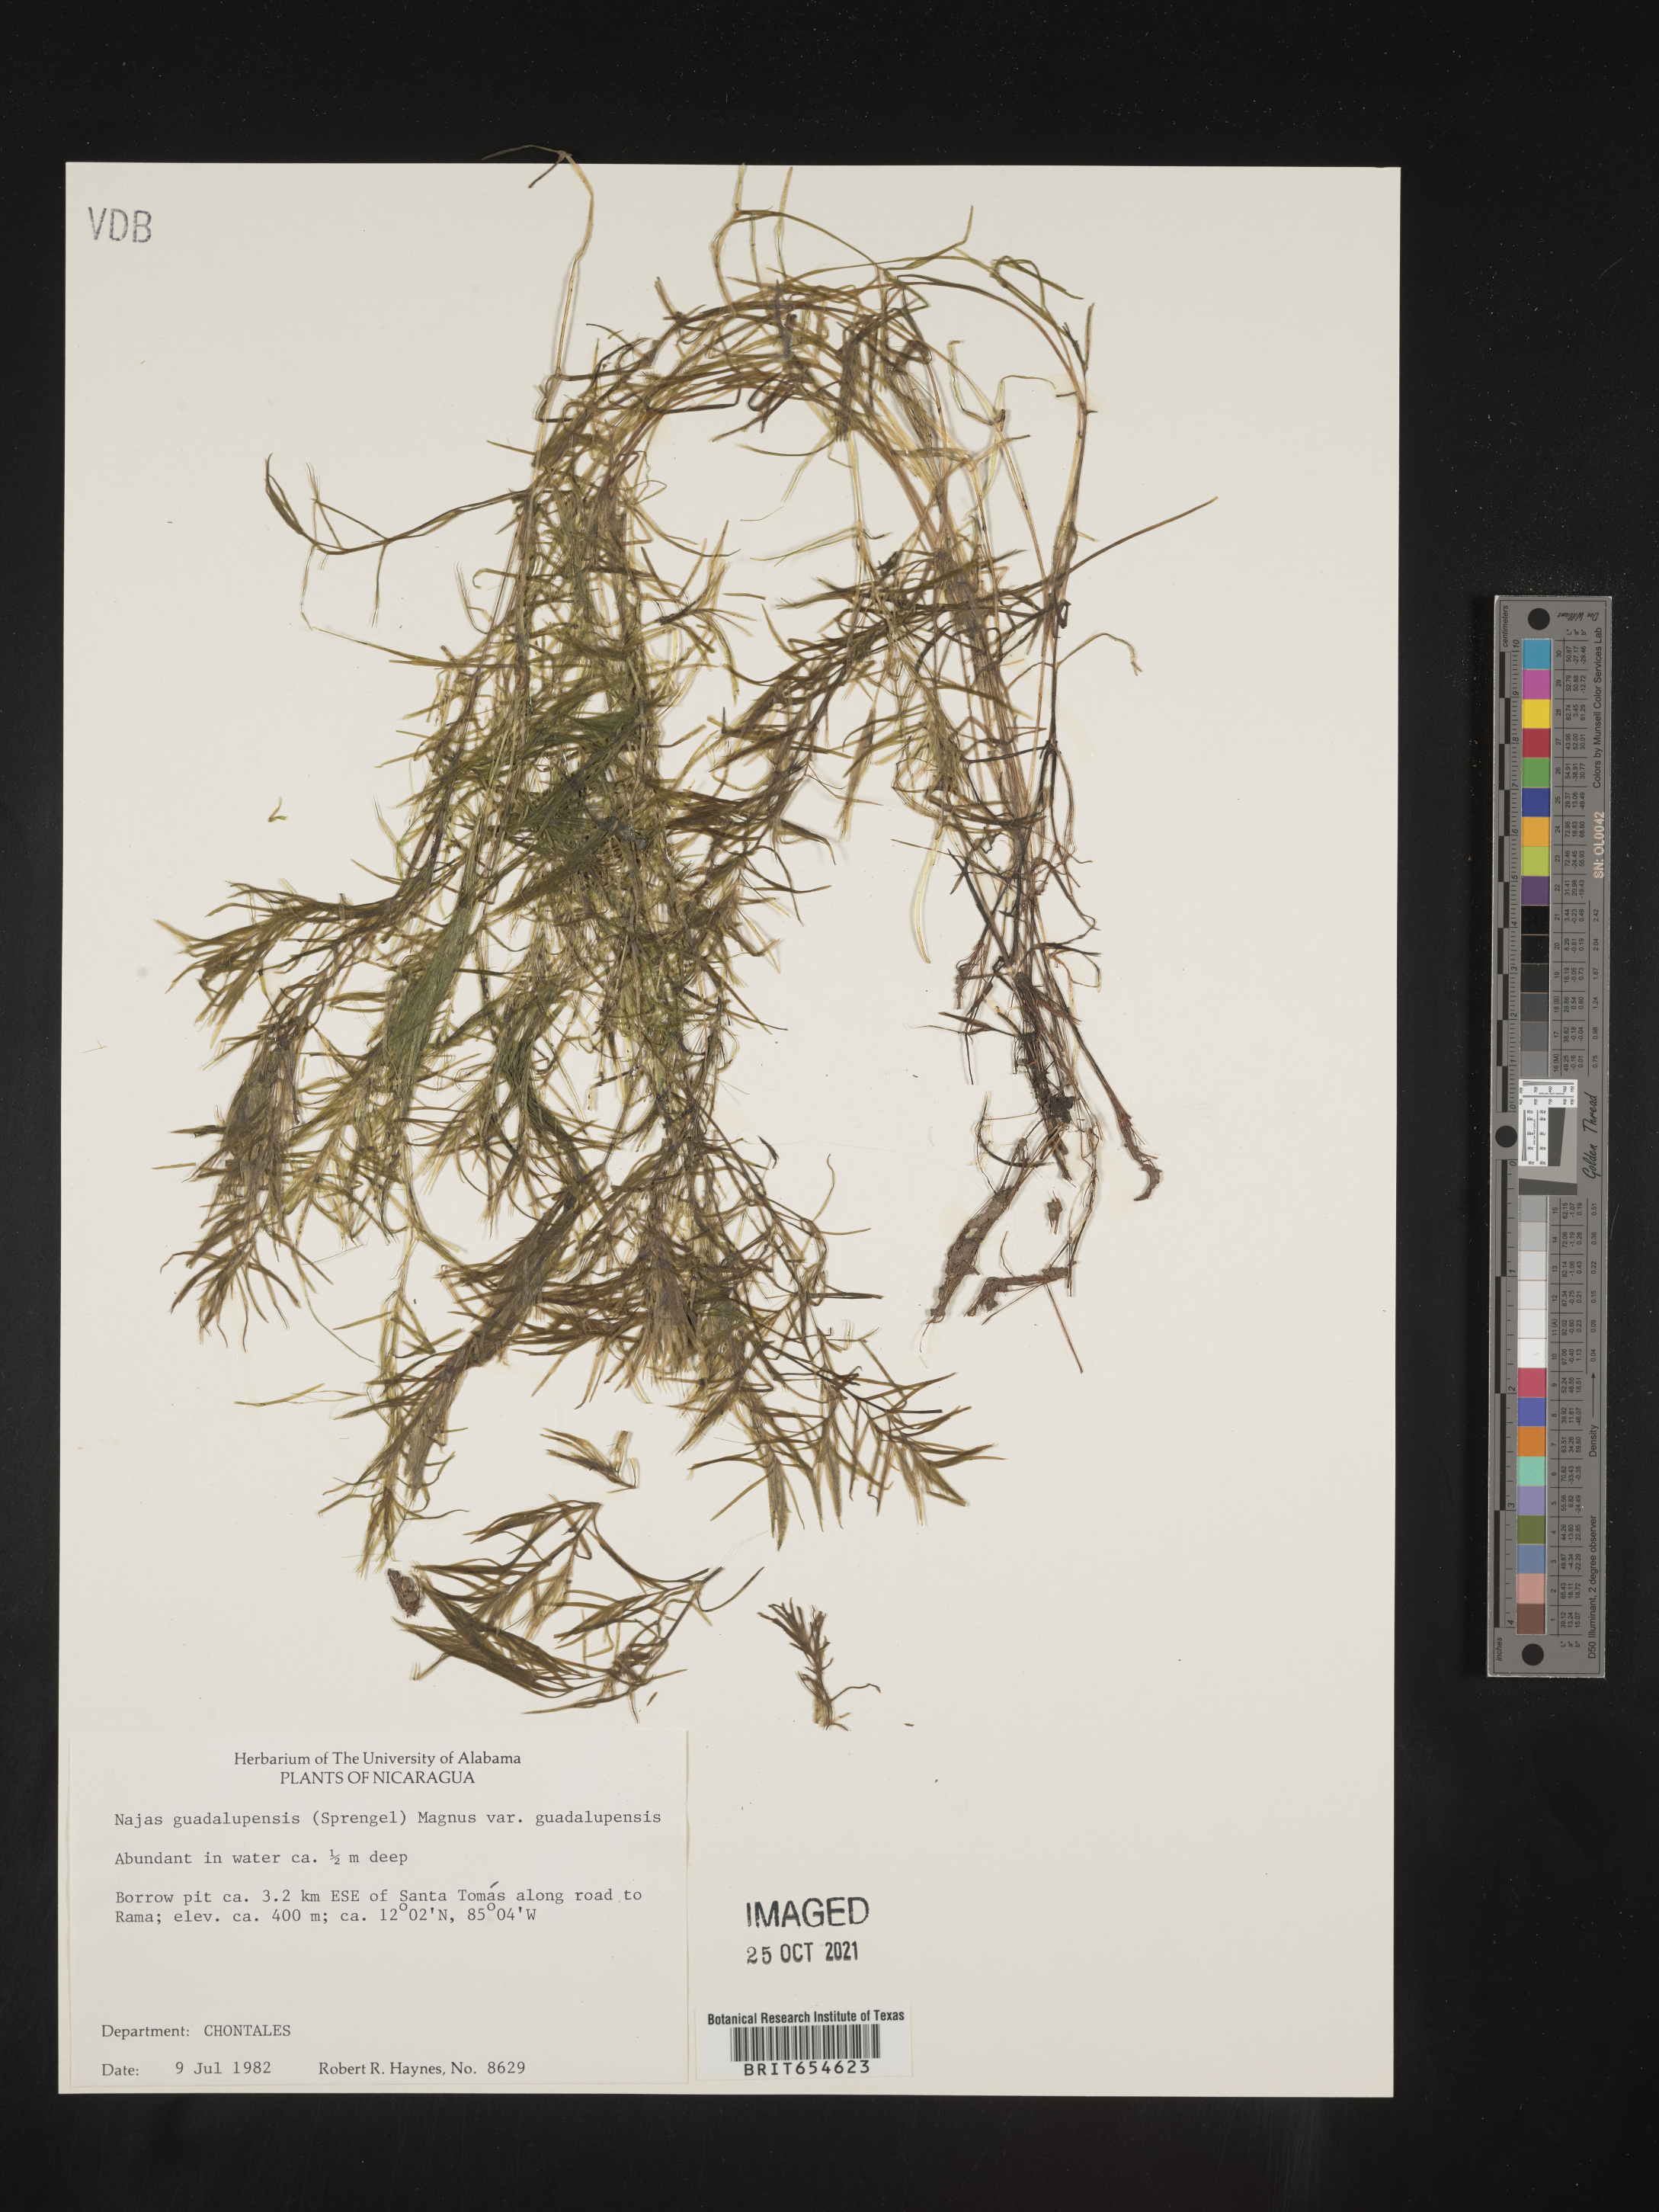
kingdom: Plantae
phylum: Tracheophyta
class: Liliopsida
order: Alismatales
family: Hydrocharitaceae
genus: Najas
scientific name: Najas
